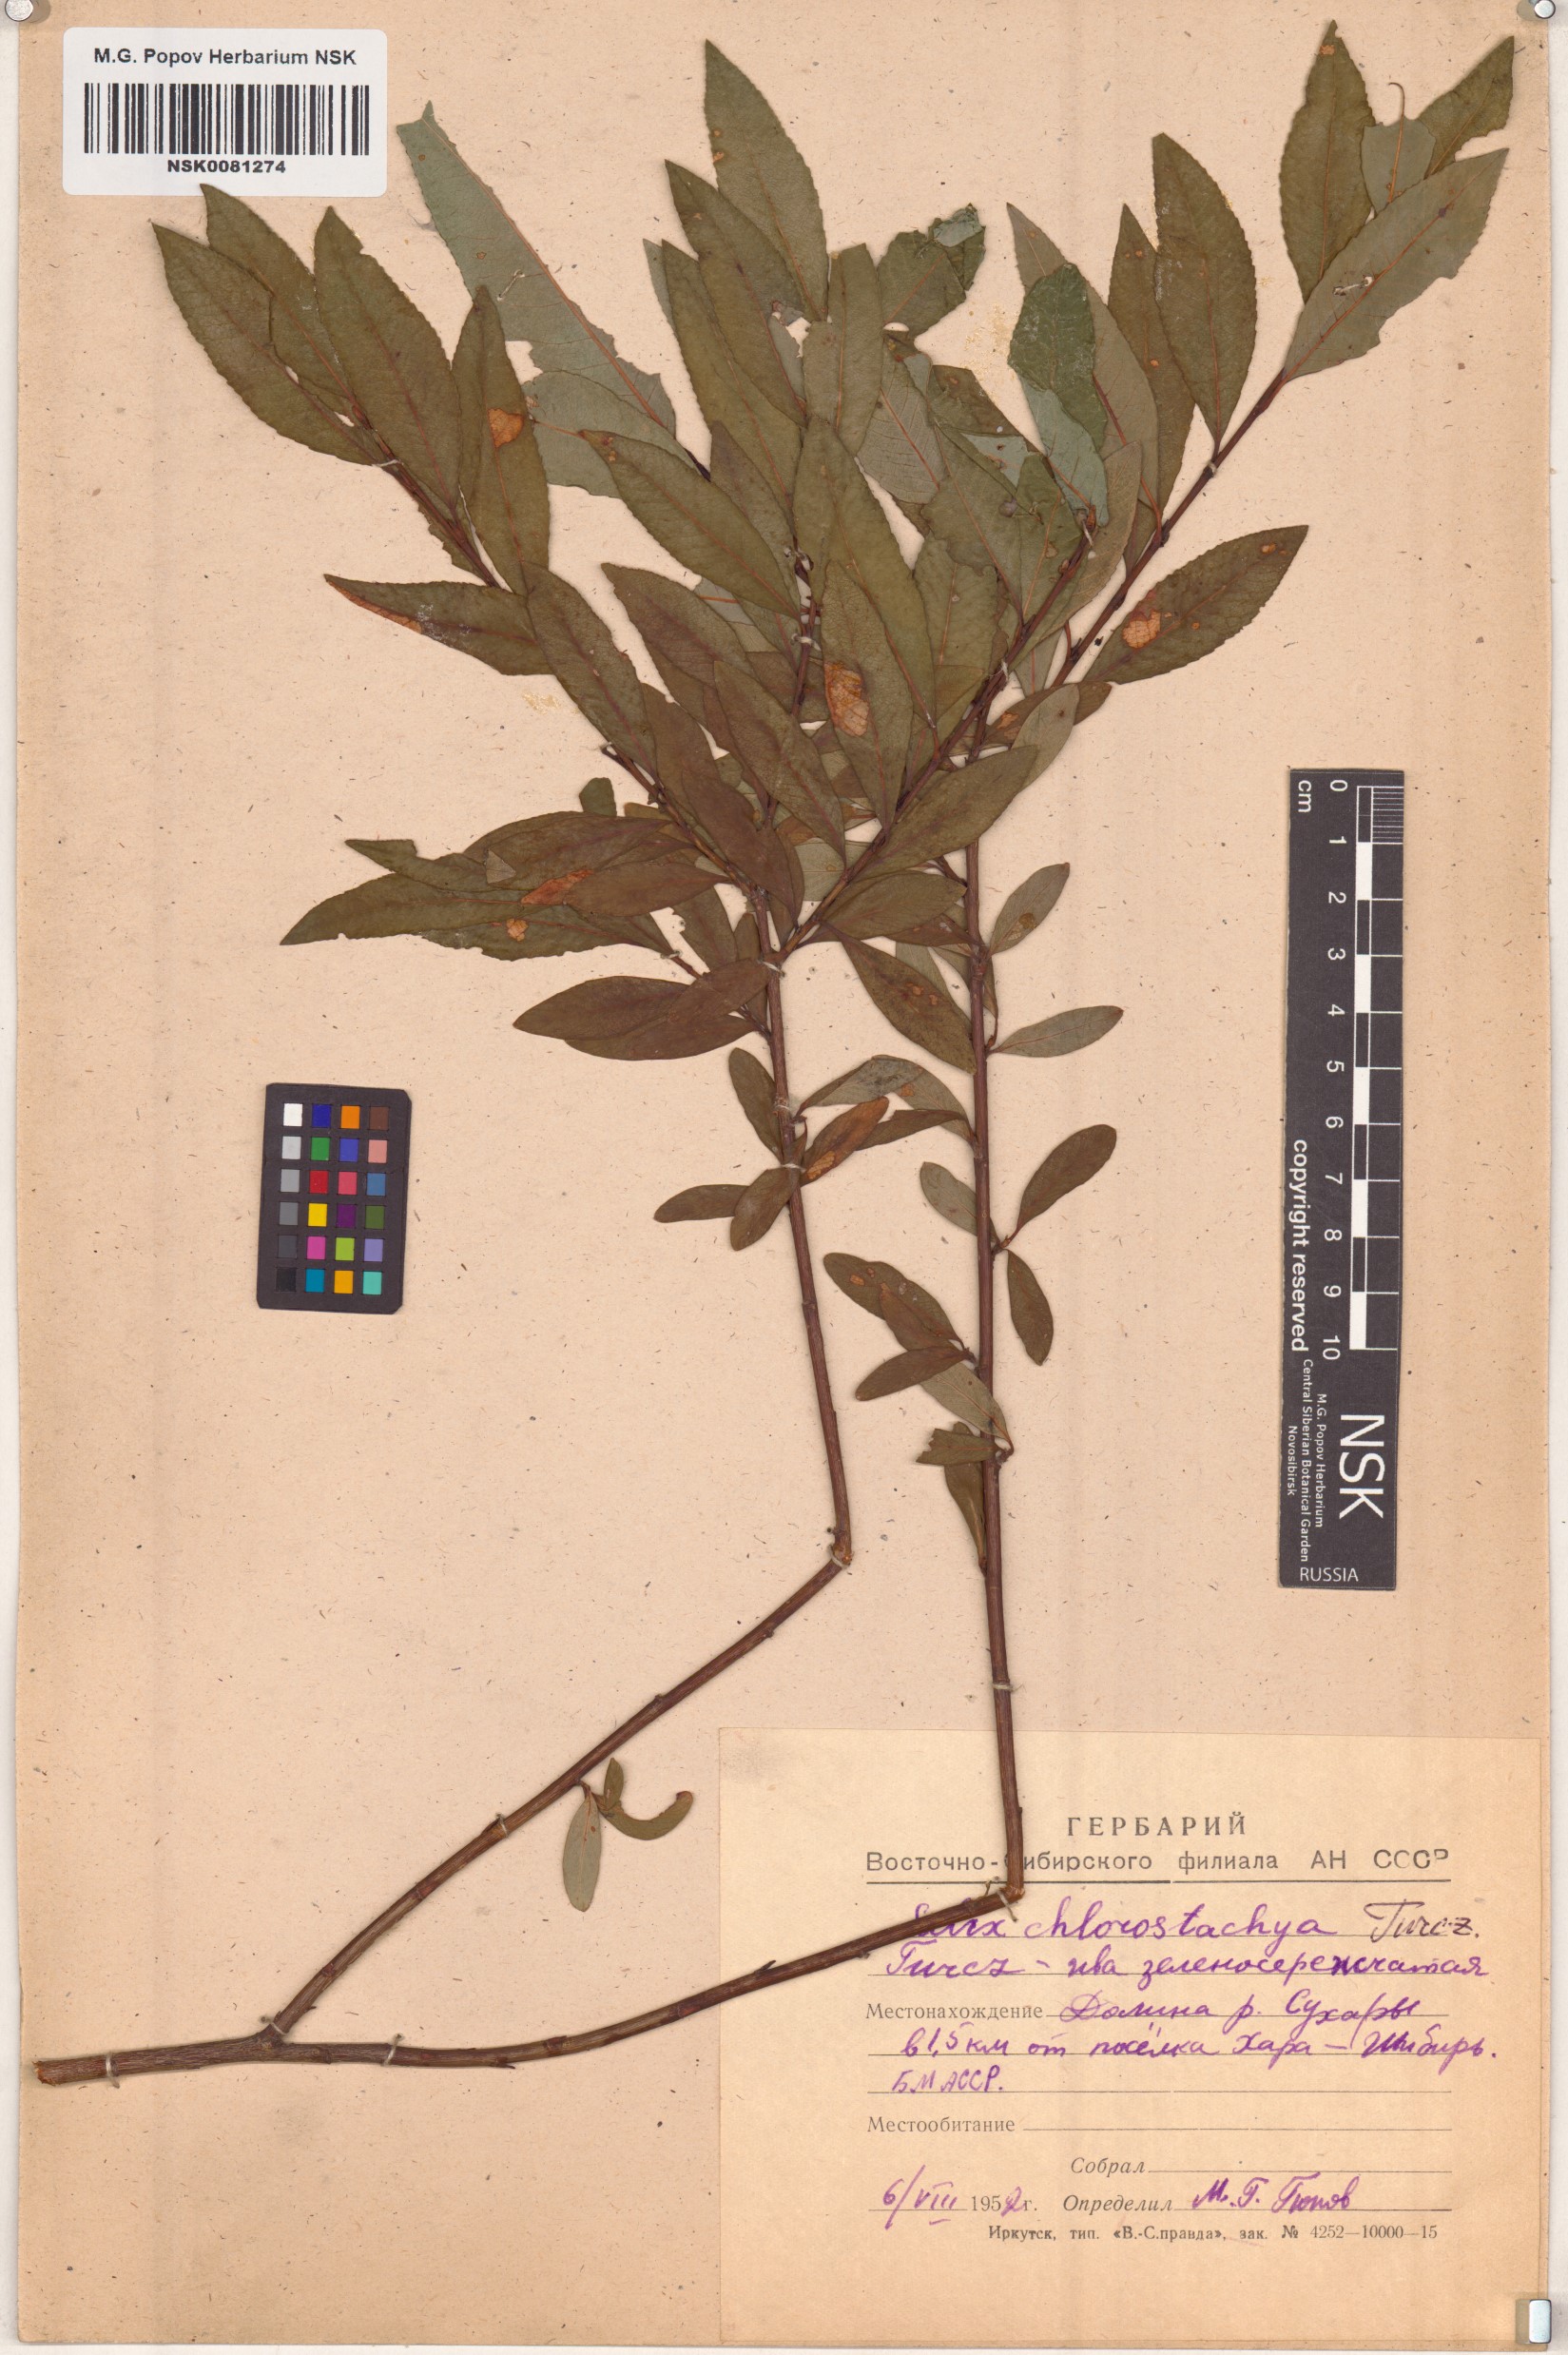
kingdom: Plantae
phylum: Tracheophyta
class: Magnoliopsida
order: Malpighiales
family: Salicaceae
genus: Salix
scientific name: Salix rhamnifolia
